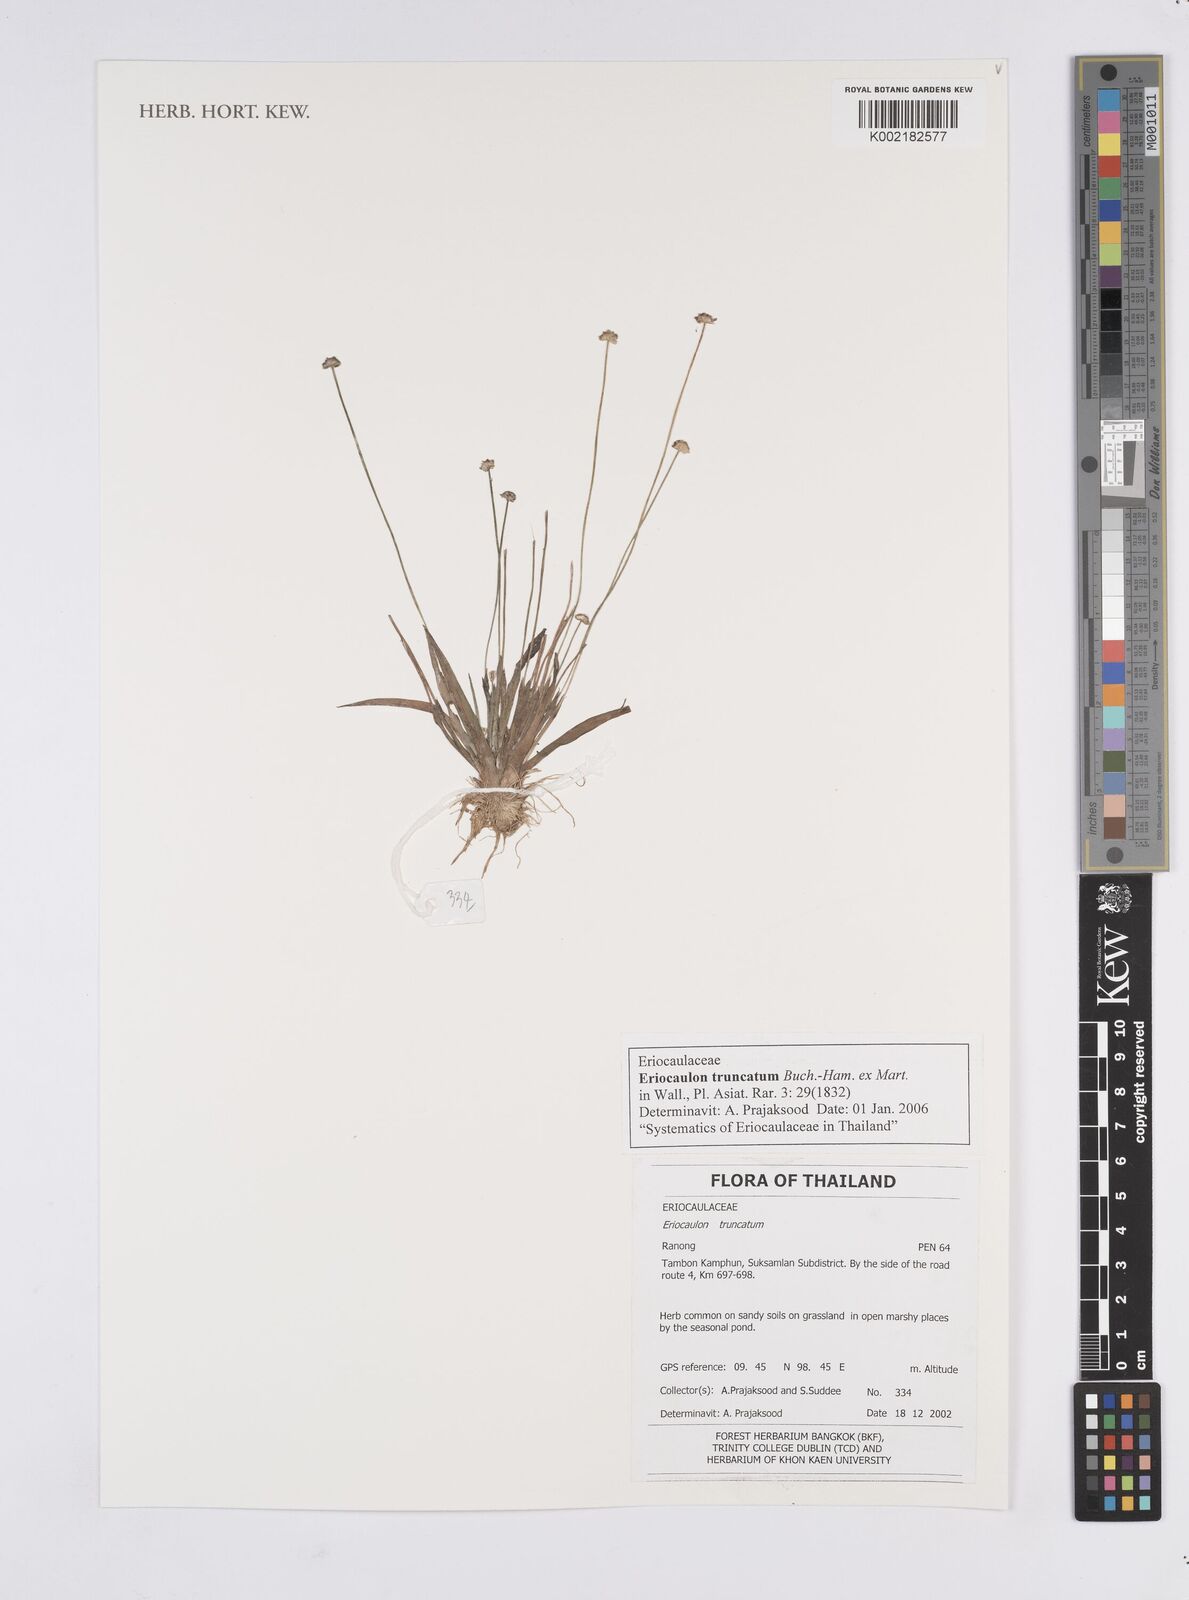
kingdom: Plantae
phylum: Tracheophyta
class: Liliopsida
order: Poales
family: Eriocaulaceae
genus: Eriocaulon
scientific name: Eriocaulon truncatum
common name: Short pipe-wort
